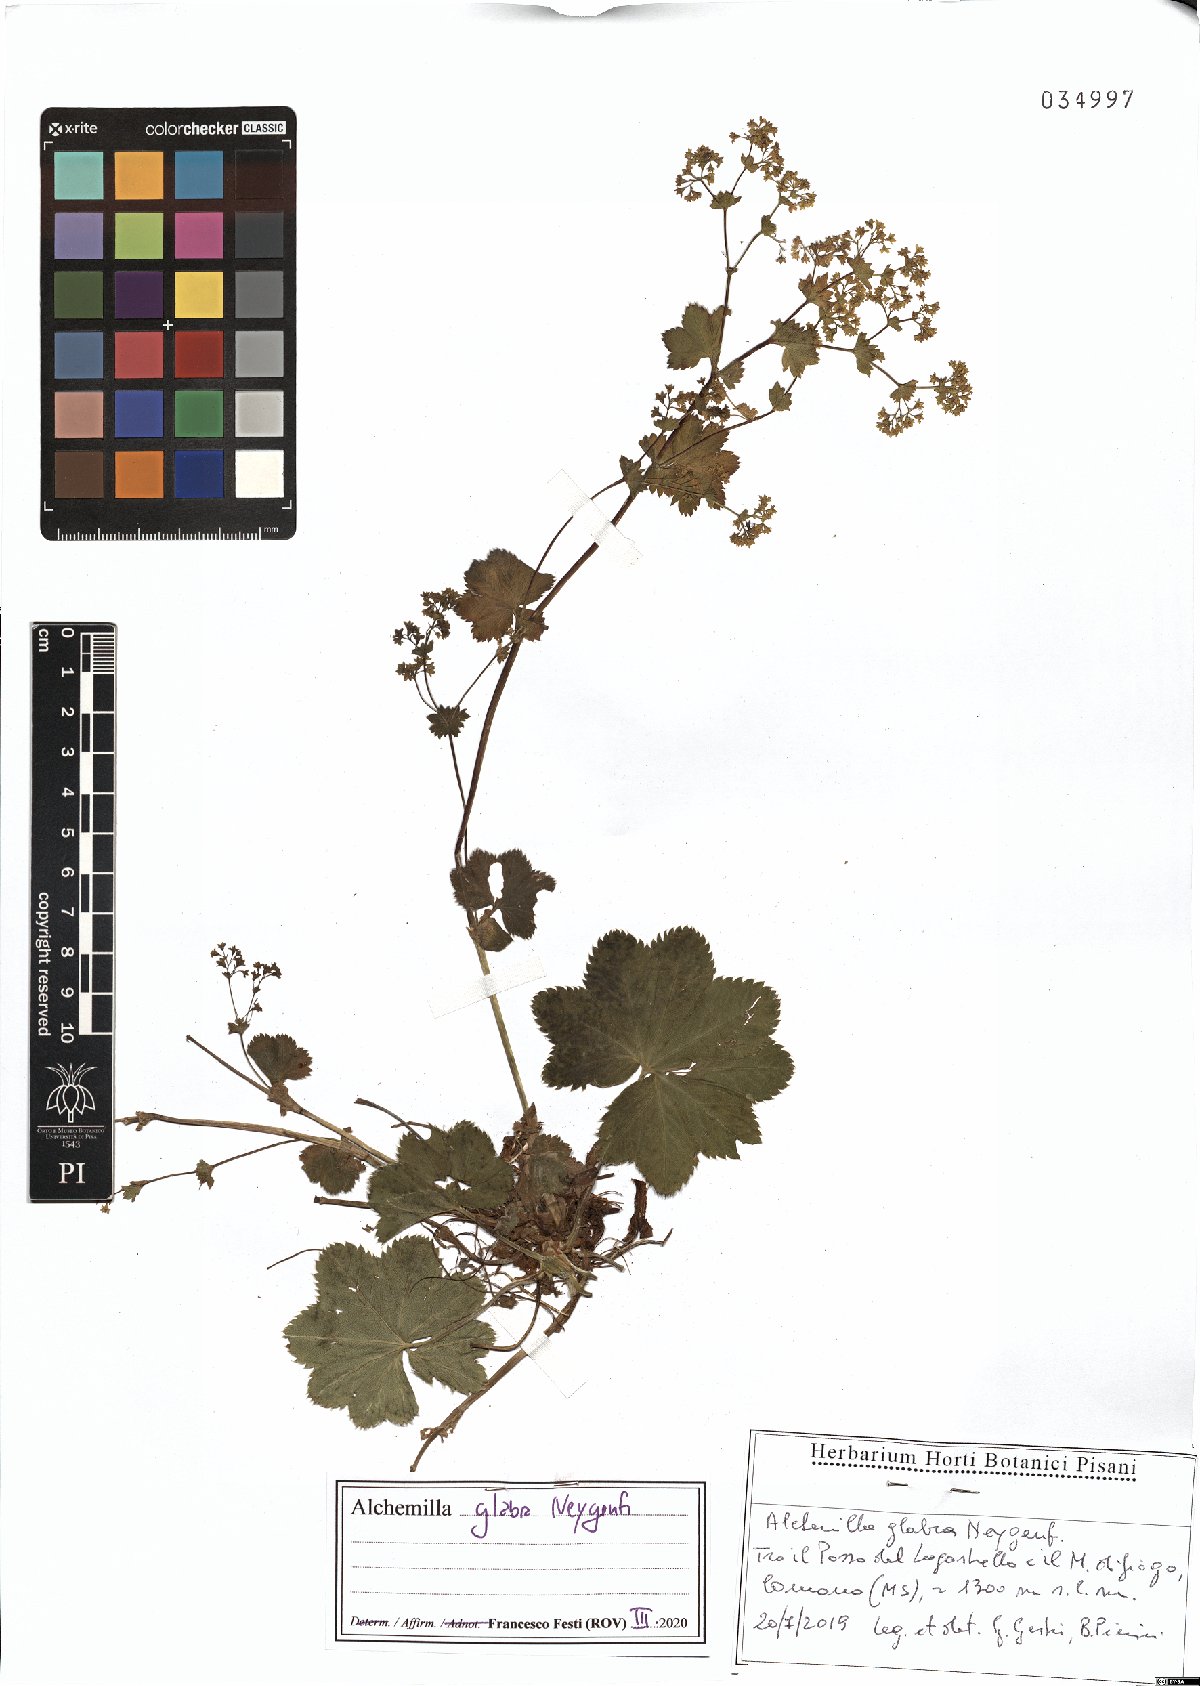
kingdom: Plantae
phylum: Tracheophyta
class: Magnoliopsida
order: Rosales
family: Rosaceae
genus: Alchemilla
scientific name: Alchemilla glabra
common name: Smooth lady's-mantle
